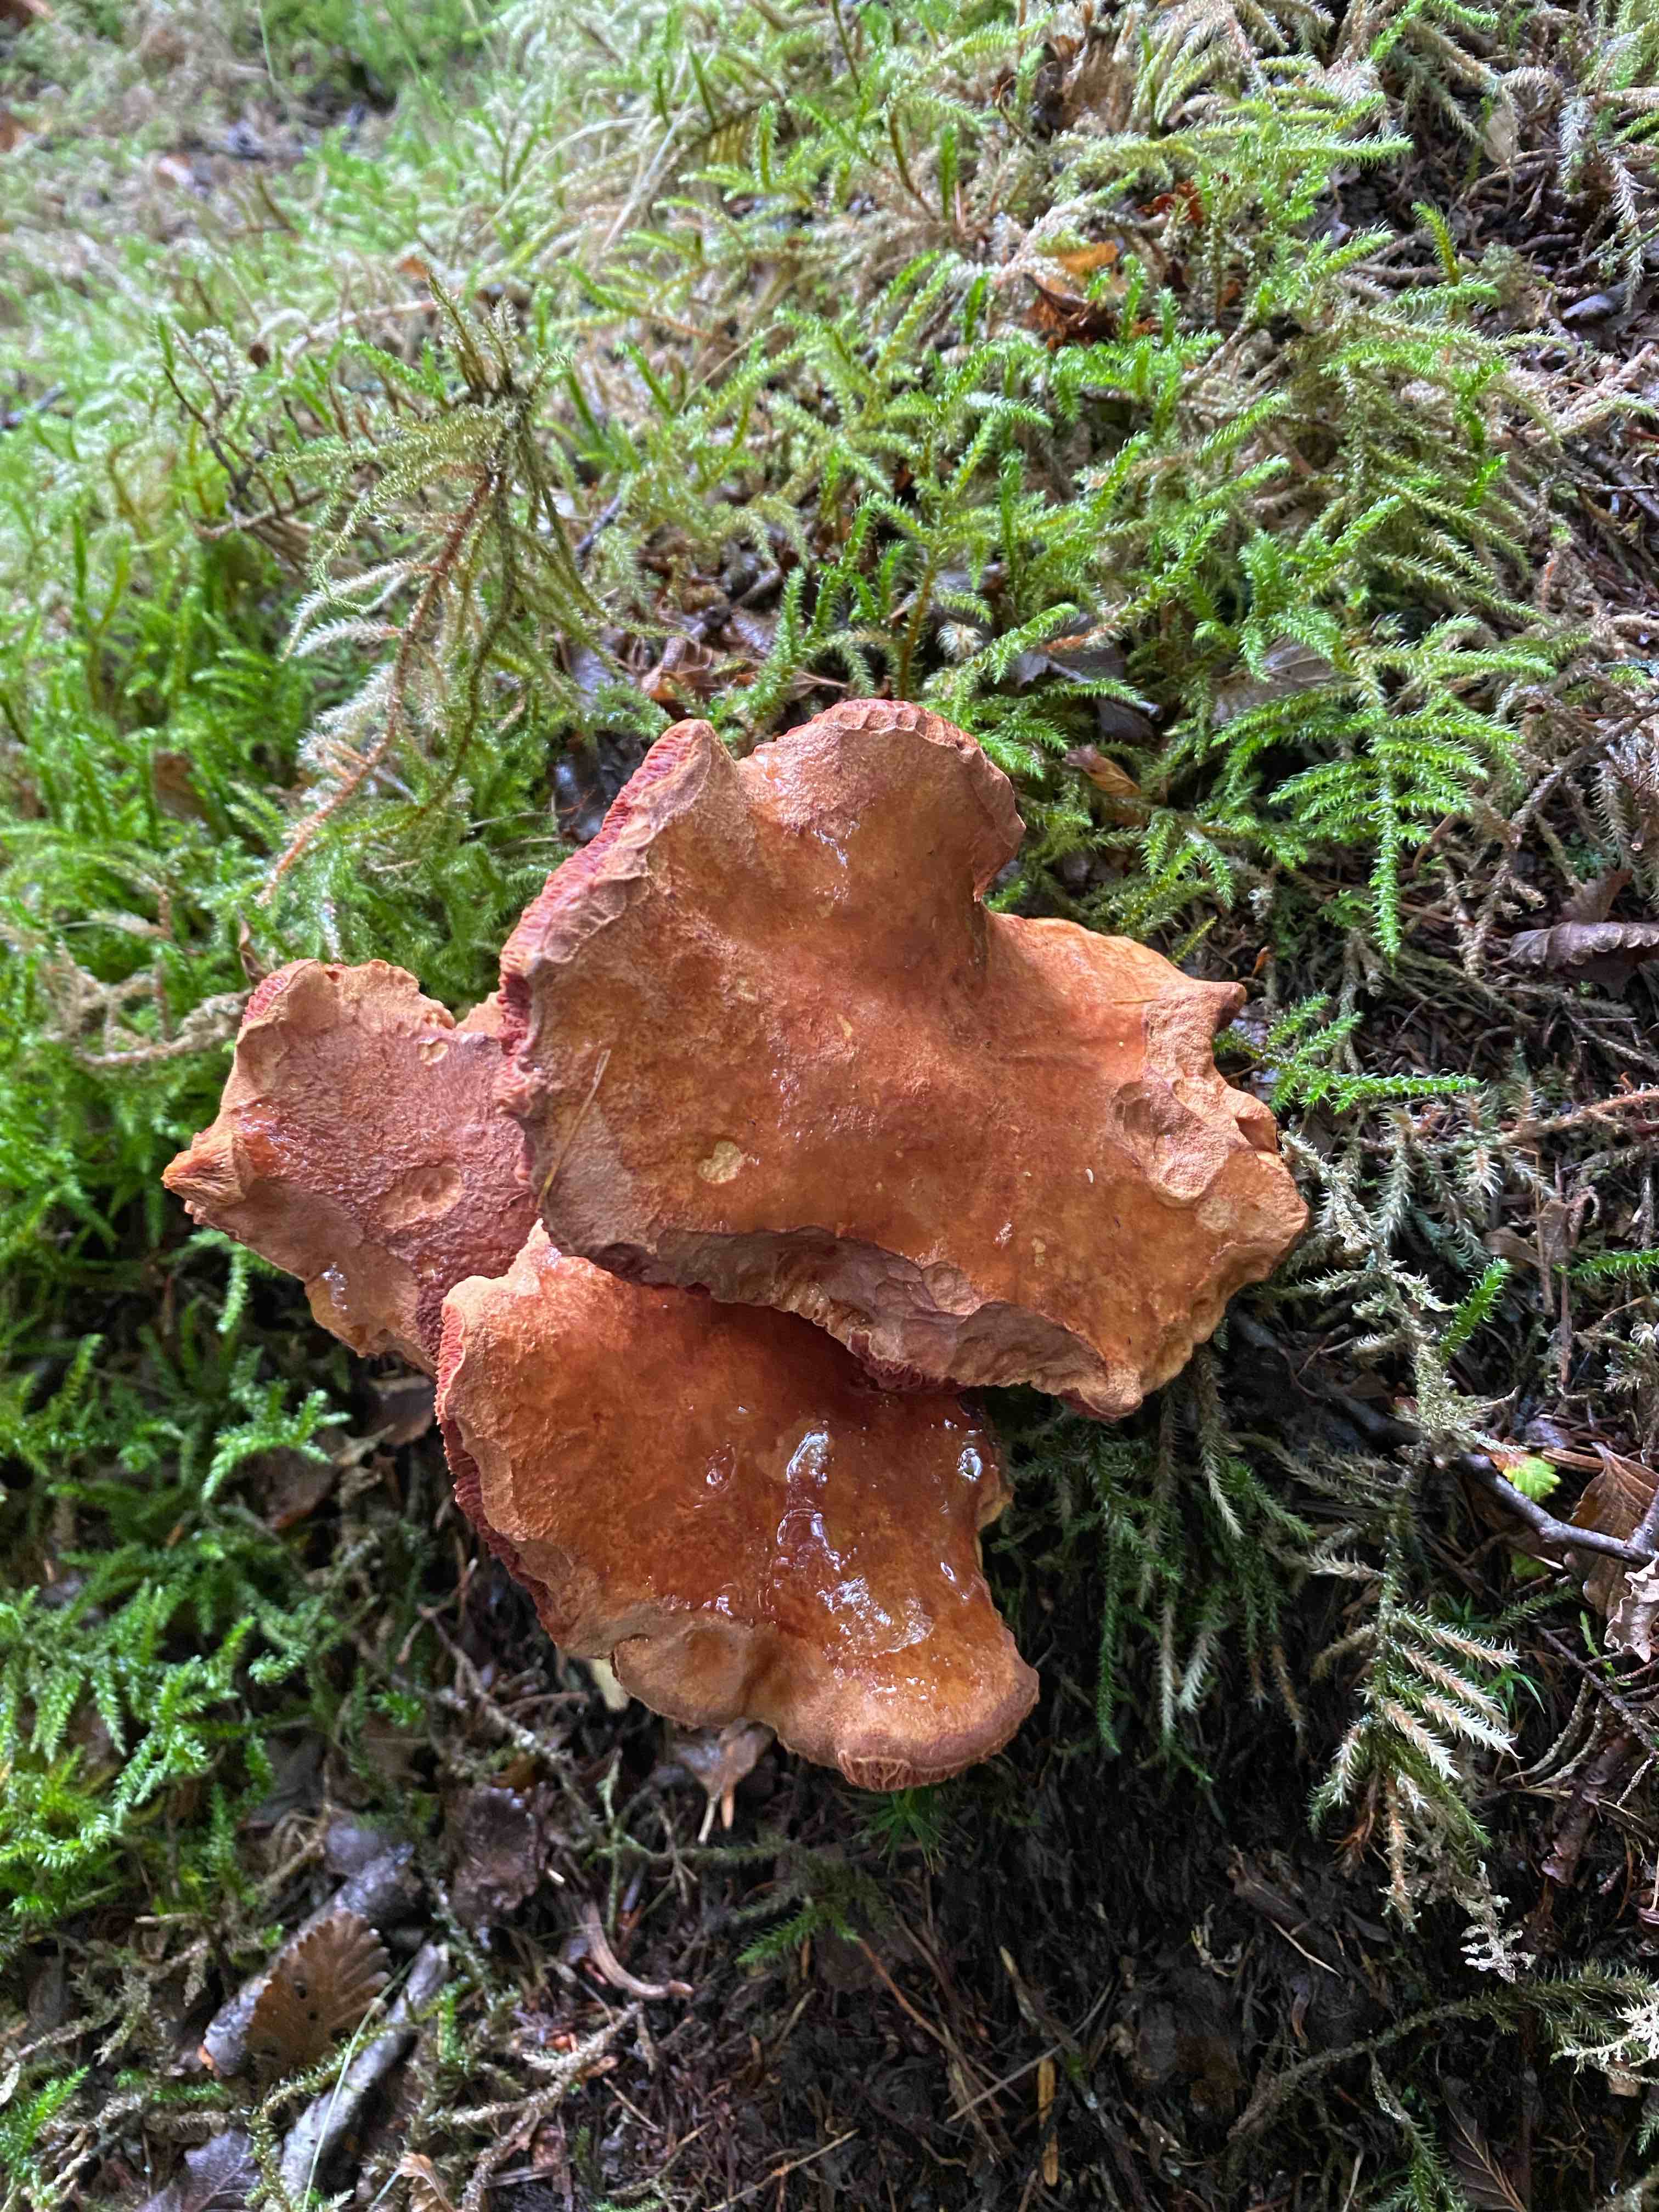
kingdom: Fungi
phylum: Basidiomycota
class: Agaricomycetes
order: Boletales
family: Boletaceae
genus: Chalciporus
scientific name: Chalciporus piperatus
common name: peberrørhat
